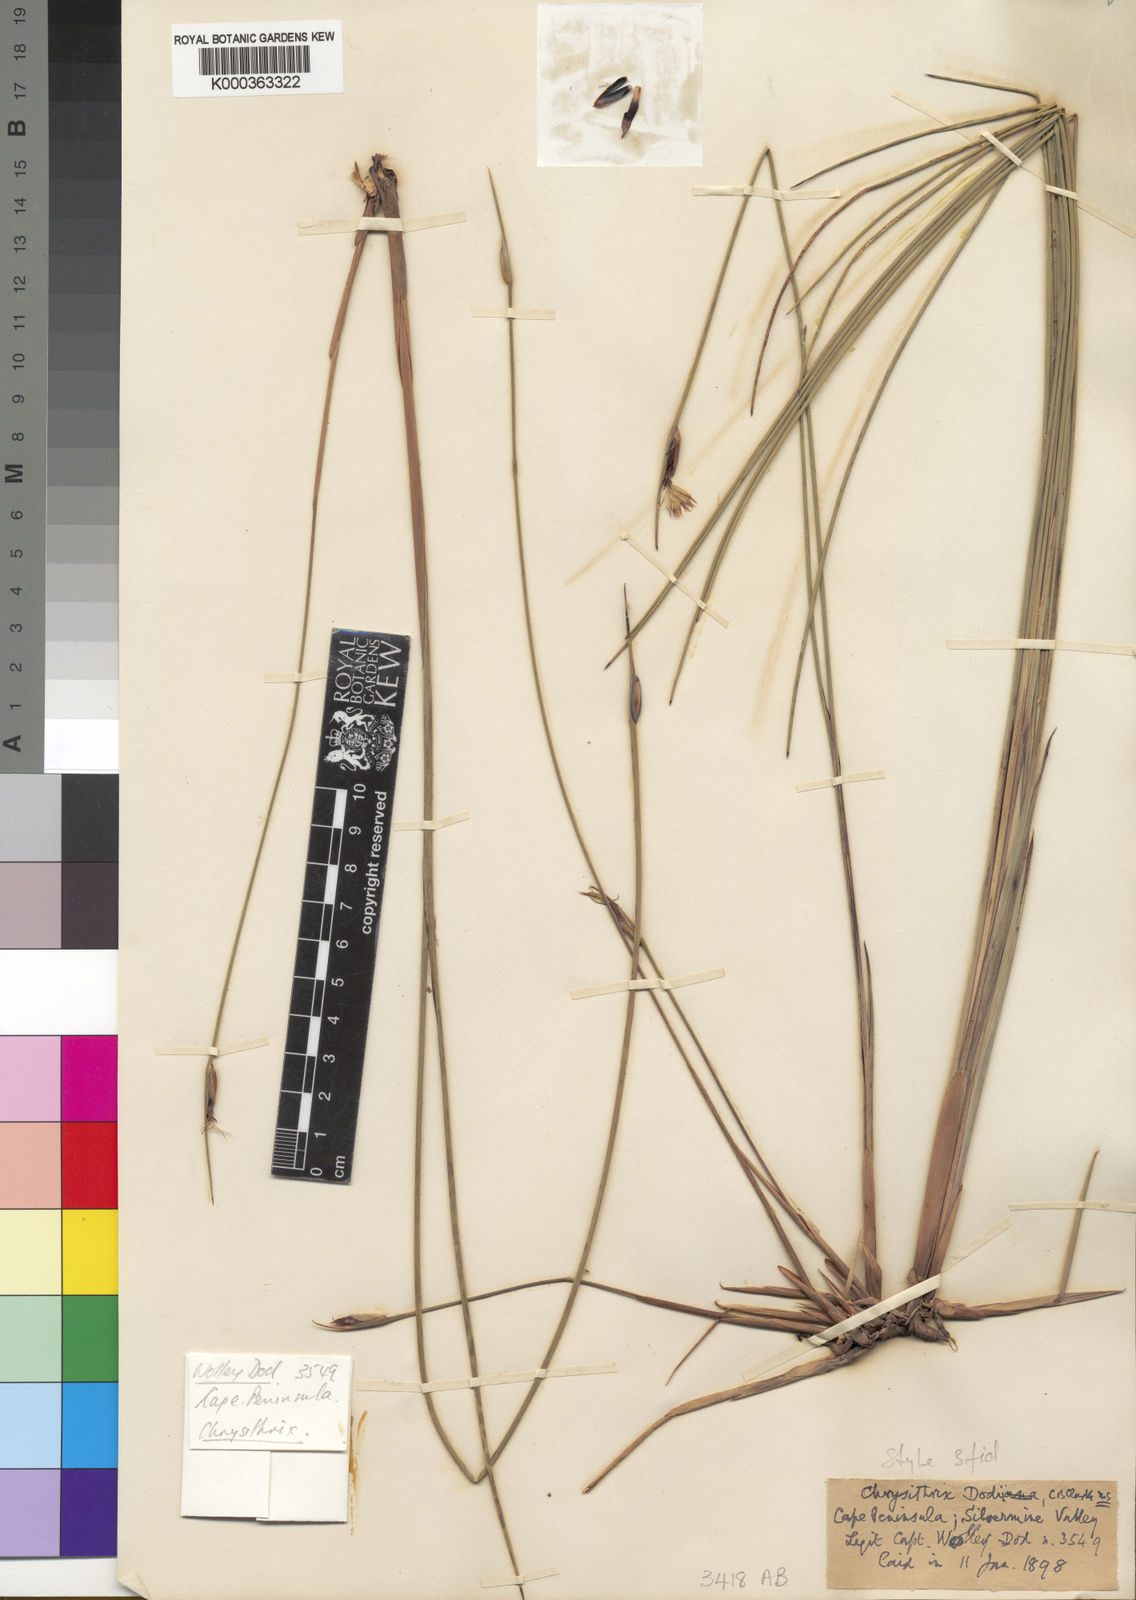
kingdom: Plantae
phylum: Tracheophyta
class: Liliopsida
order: Poales
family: Cyperaceae
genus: Chrysitrix
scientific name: Chrysitrix dodii
